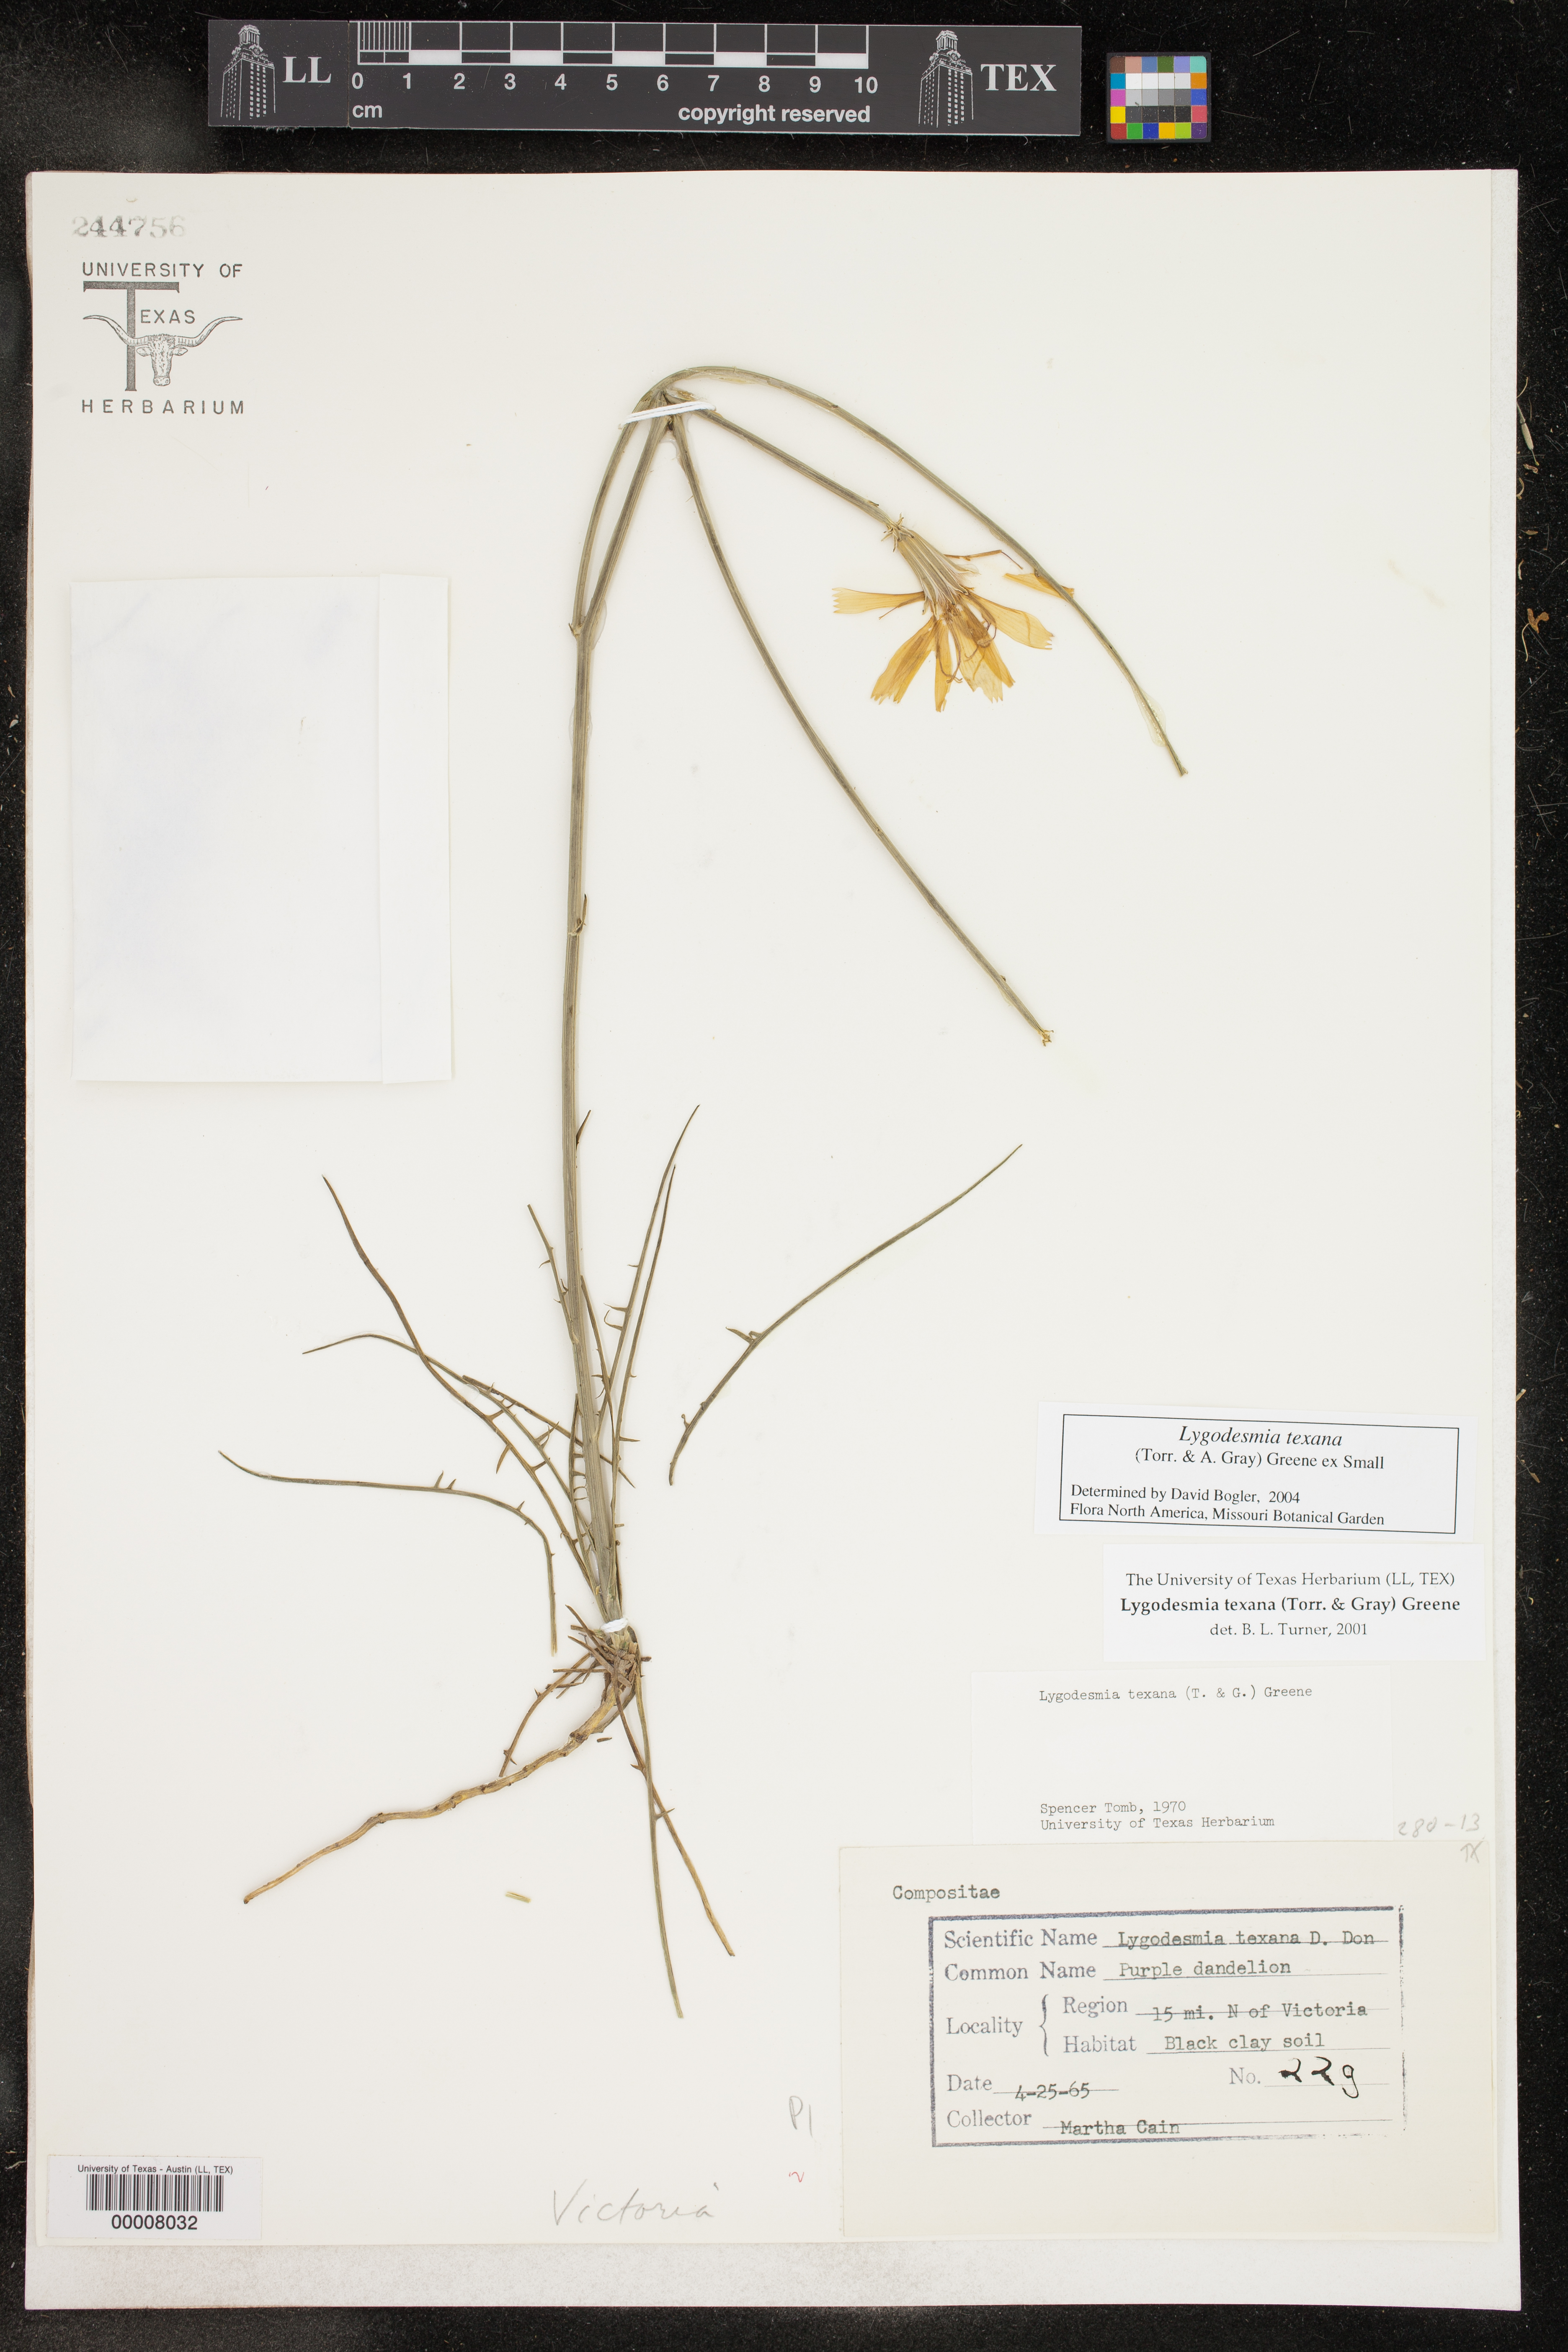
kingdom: Plantae
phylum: Tracheophyta
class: Magnoliopsida
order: Asterales
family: Asteraceae
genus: Lygodesmia
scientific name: Lygodesmia texana
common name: Texas skeleton-plant
